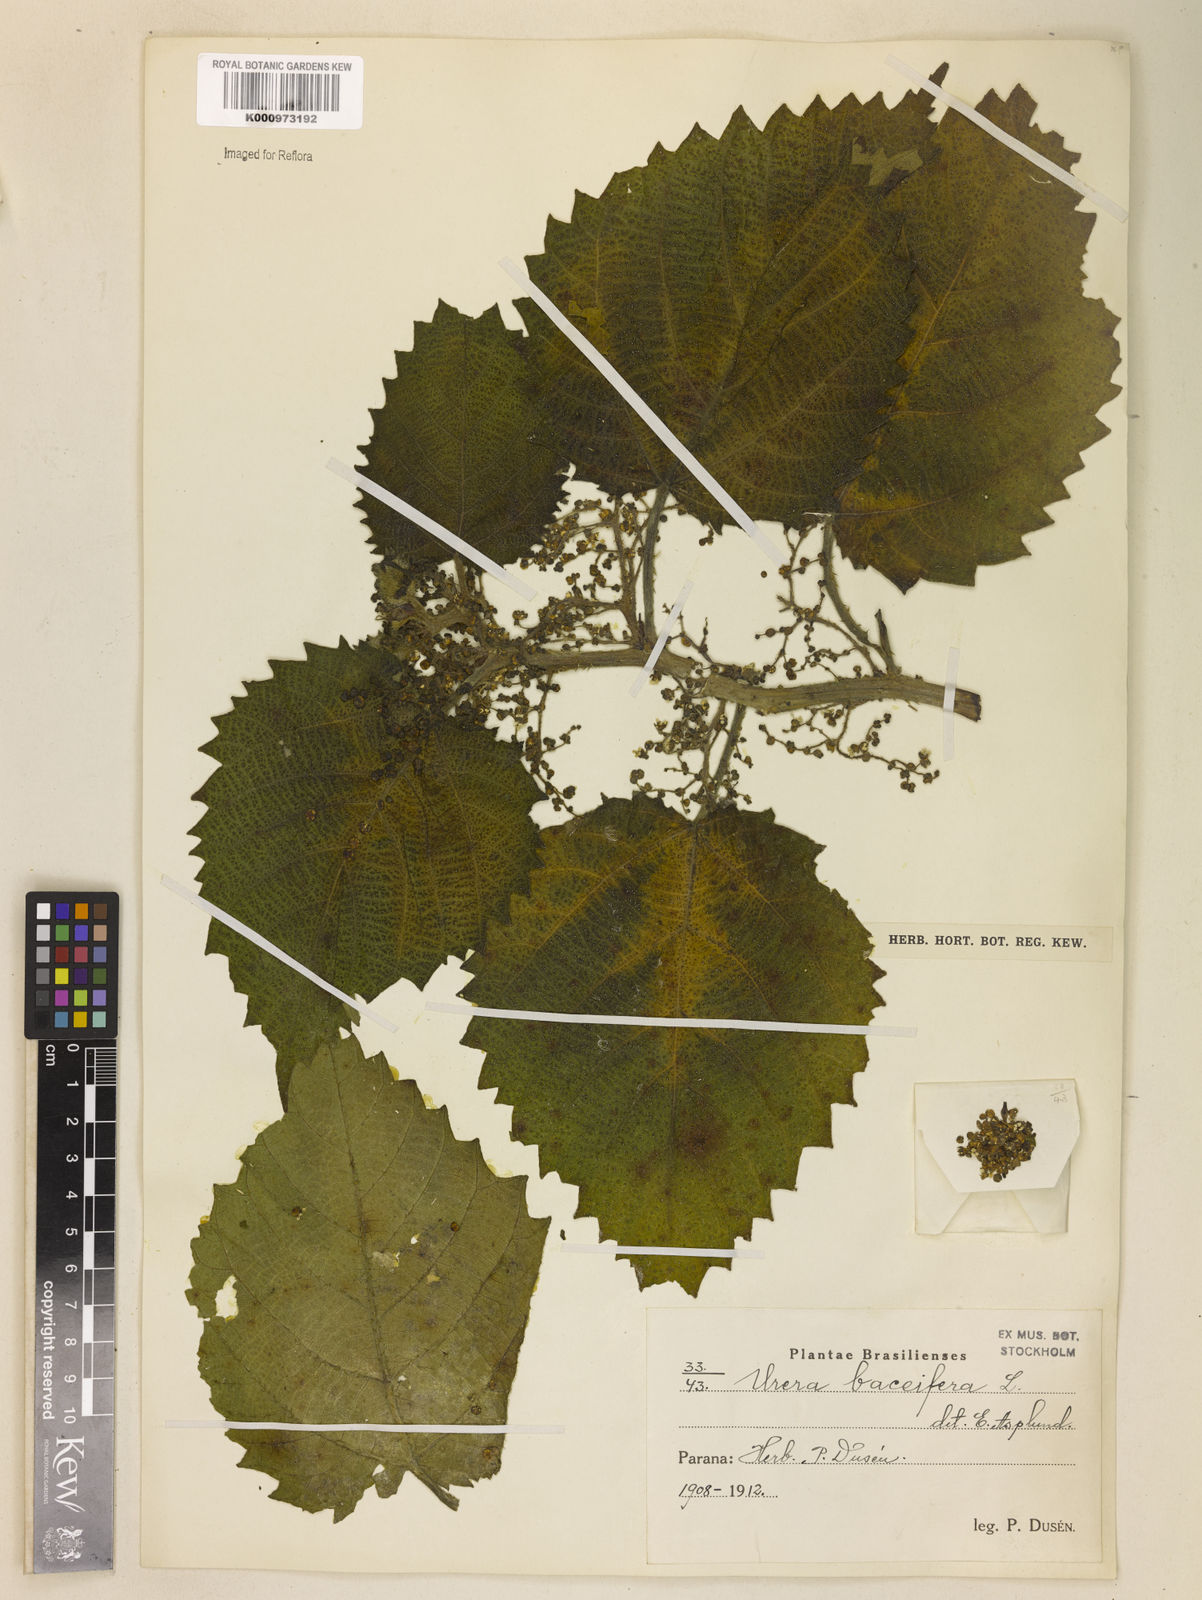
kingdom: Plantae
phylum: Tracheophyta
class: Magnoliopsida
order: Rosales
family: Urticaceae
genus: Urera
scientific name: Urera baccifera
